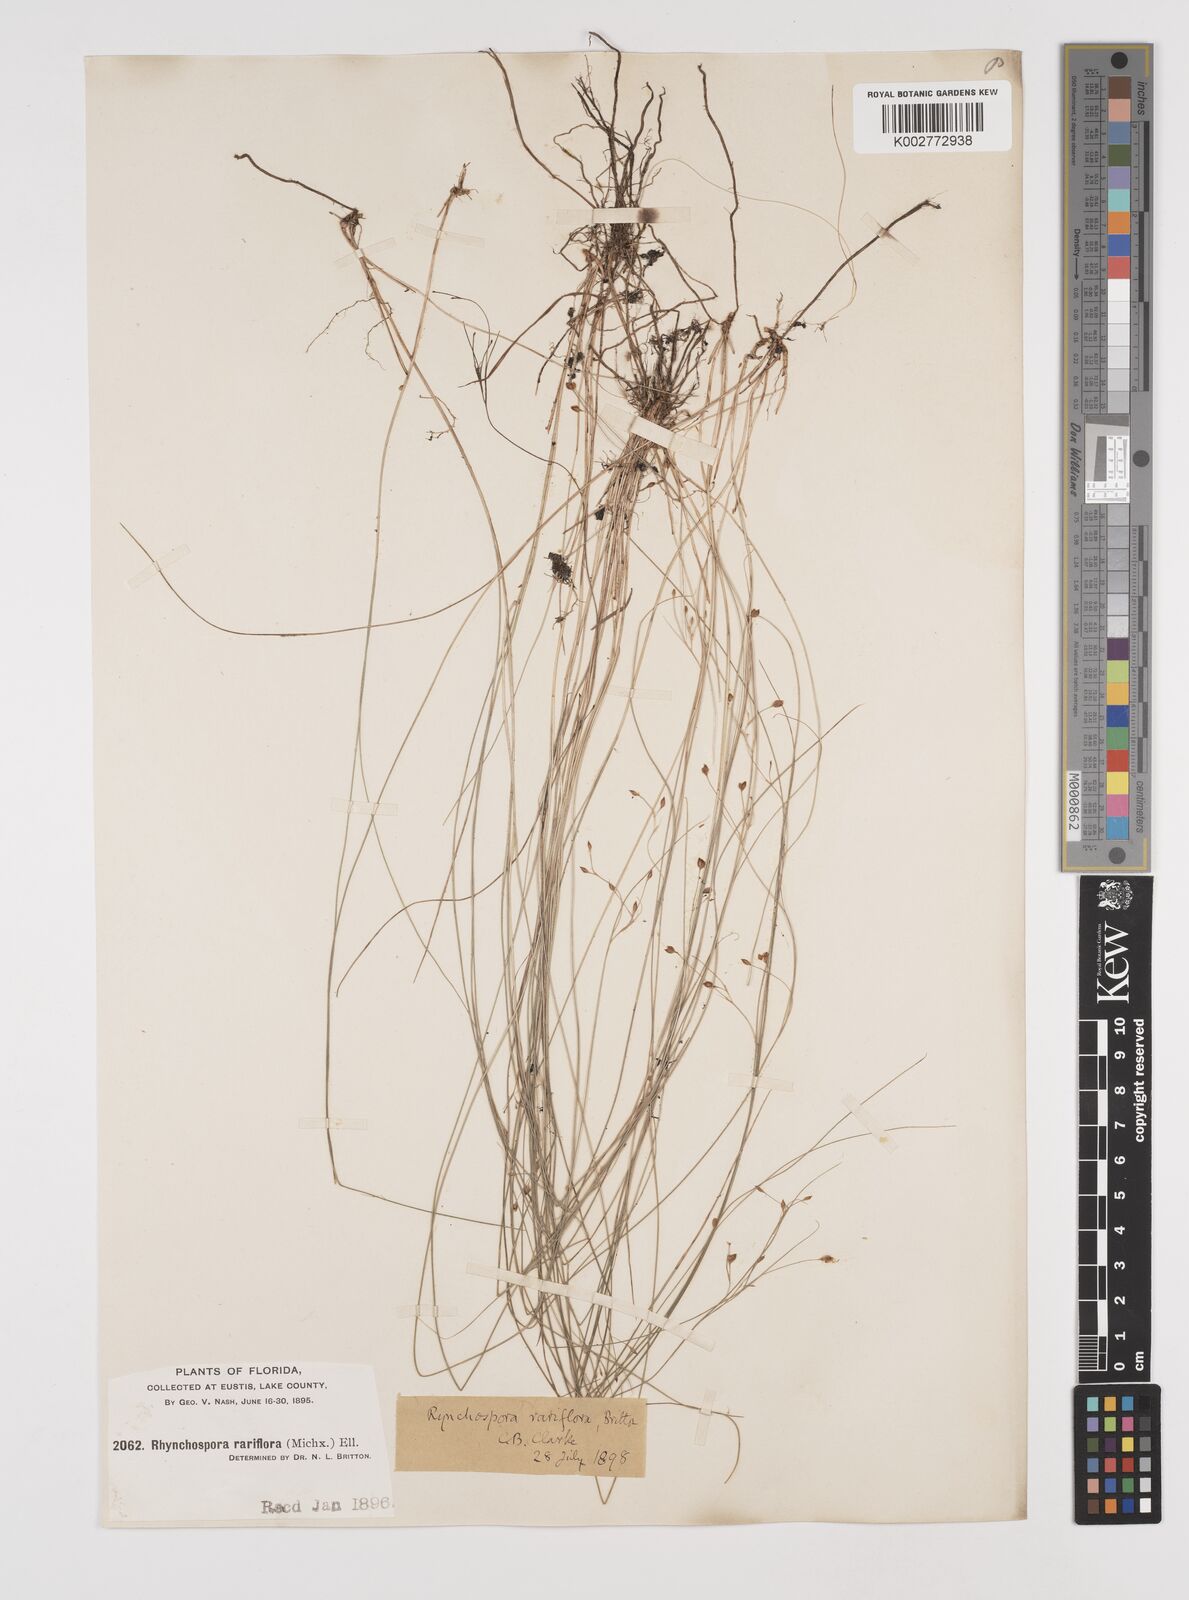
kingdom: Plantae
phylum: Tracheophyta
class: Liliopsida
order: Poales
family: Cyperaceae
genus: Rhynchospora
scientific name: Rhynchospora rariflora
